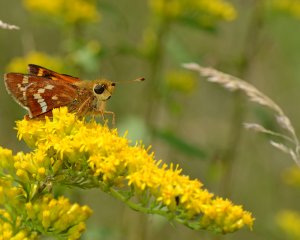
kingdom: Animalia
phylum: Arthropoda
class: Insecta
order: Lepidoptera
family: Hesperiidae
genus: Hesperia
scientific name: Hesperia leonardus
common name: Leonard's Skipper
